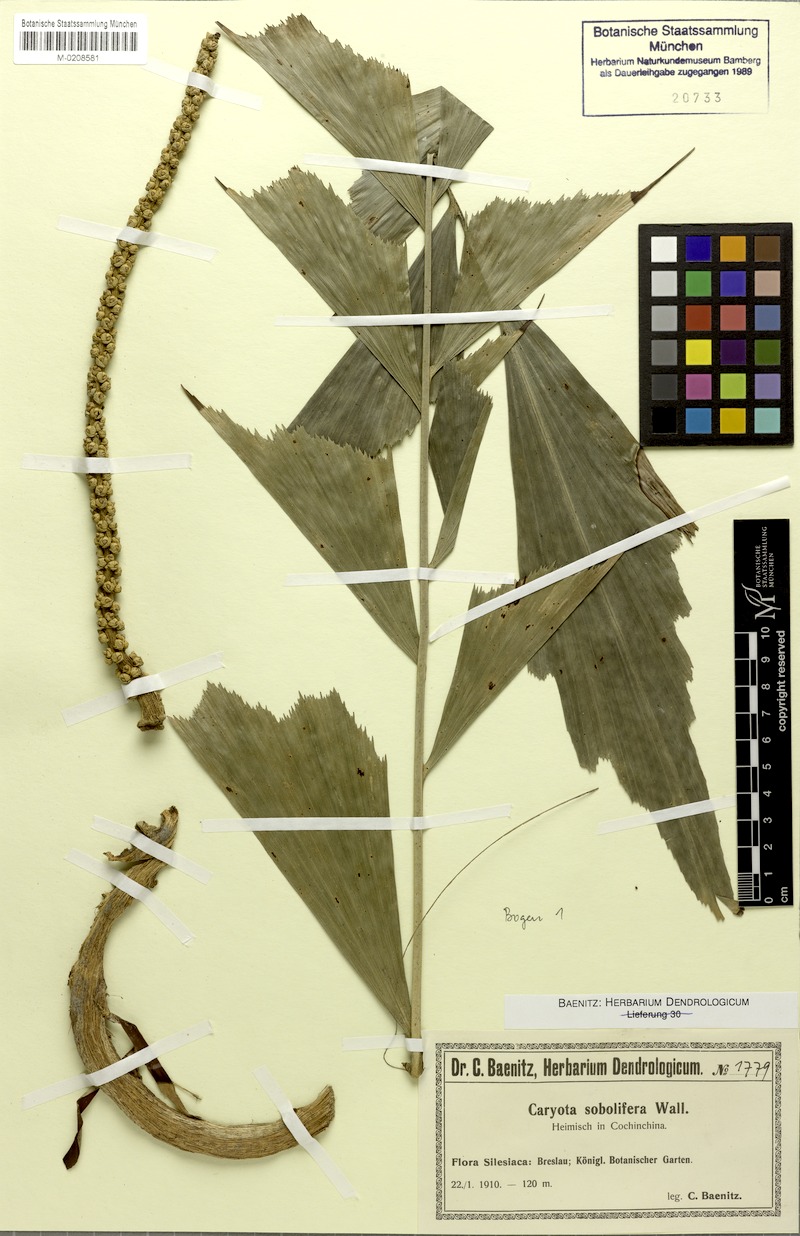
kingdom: Plantae
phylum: Tracheophyta
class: Liliopsida
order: Arecales
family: Arecaceae
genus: Caryota
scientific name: Caryota mitis
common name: Burmese fishtail palm
